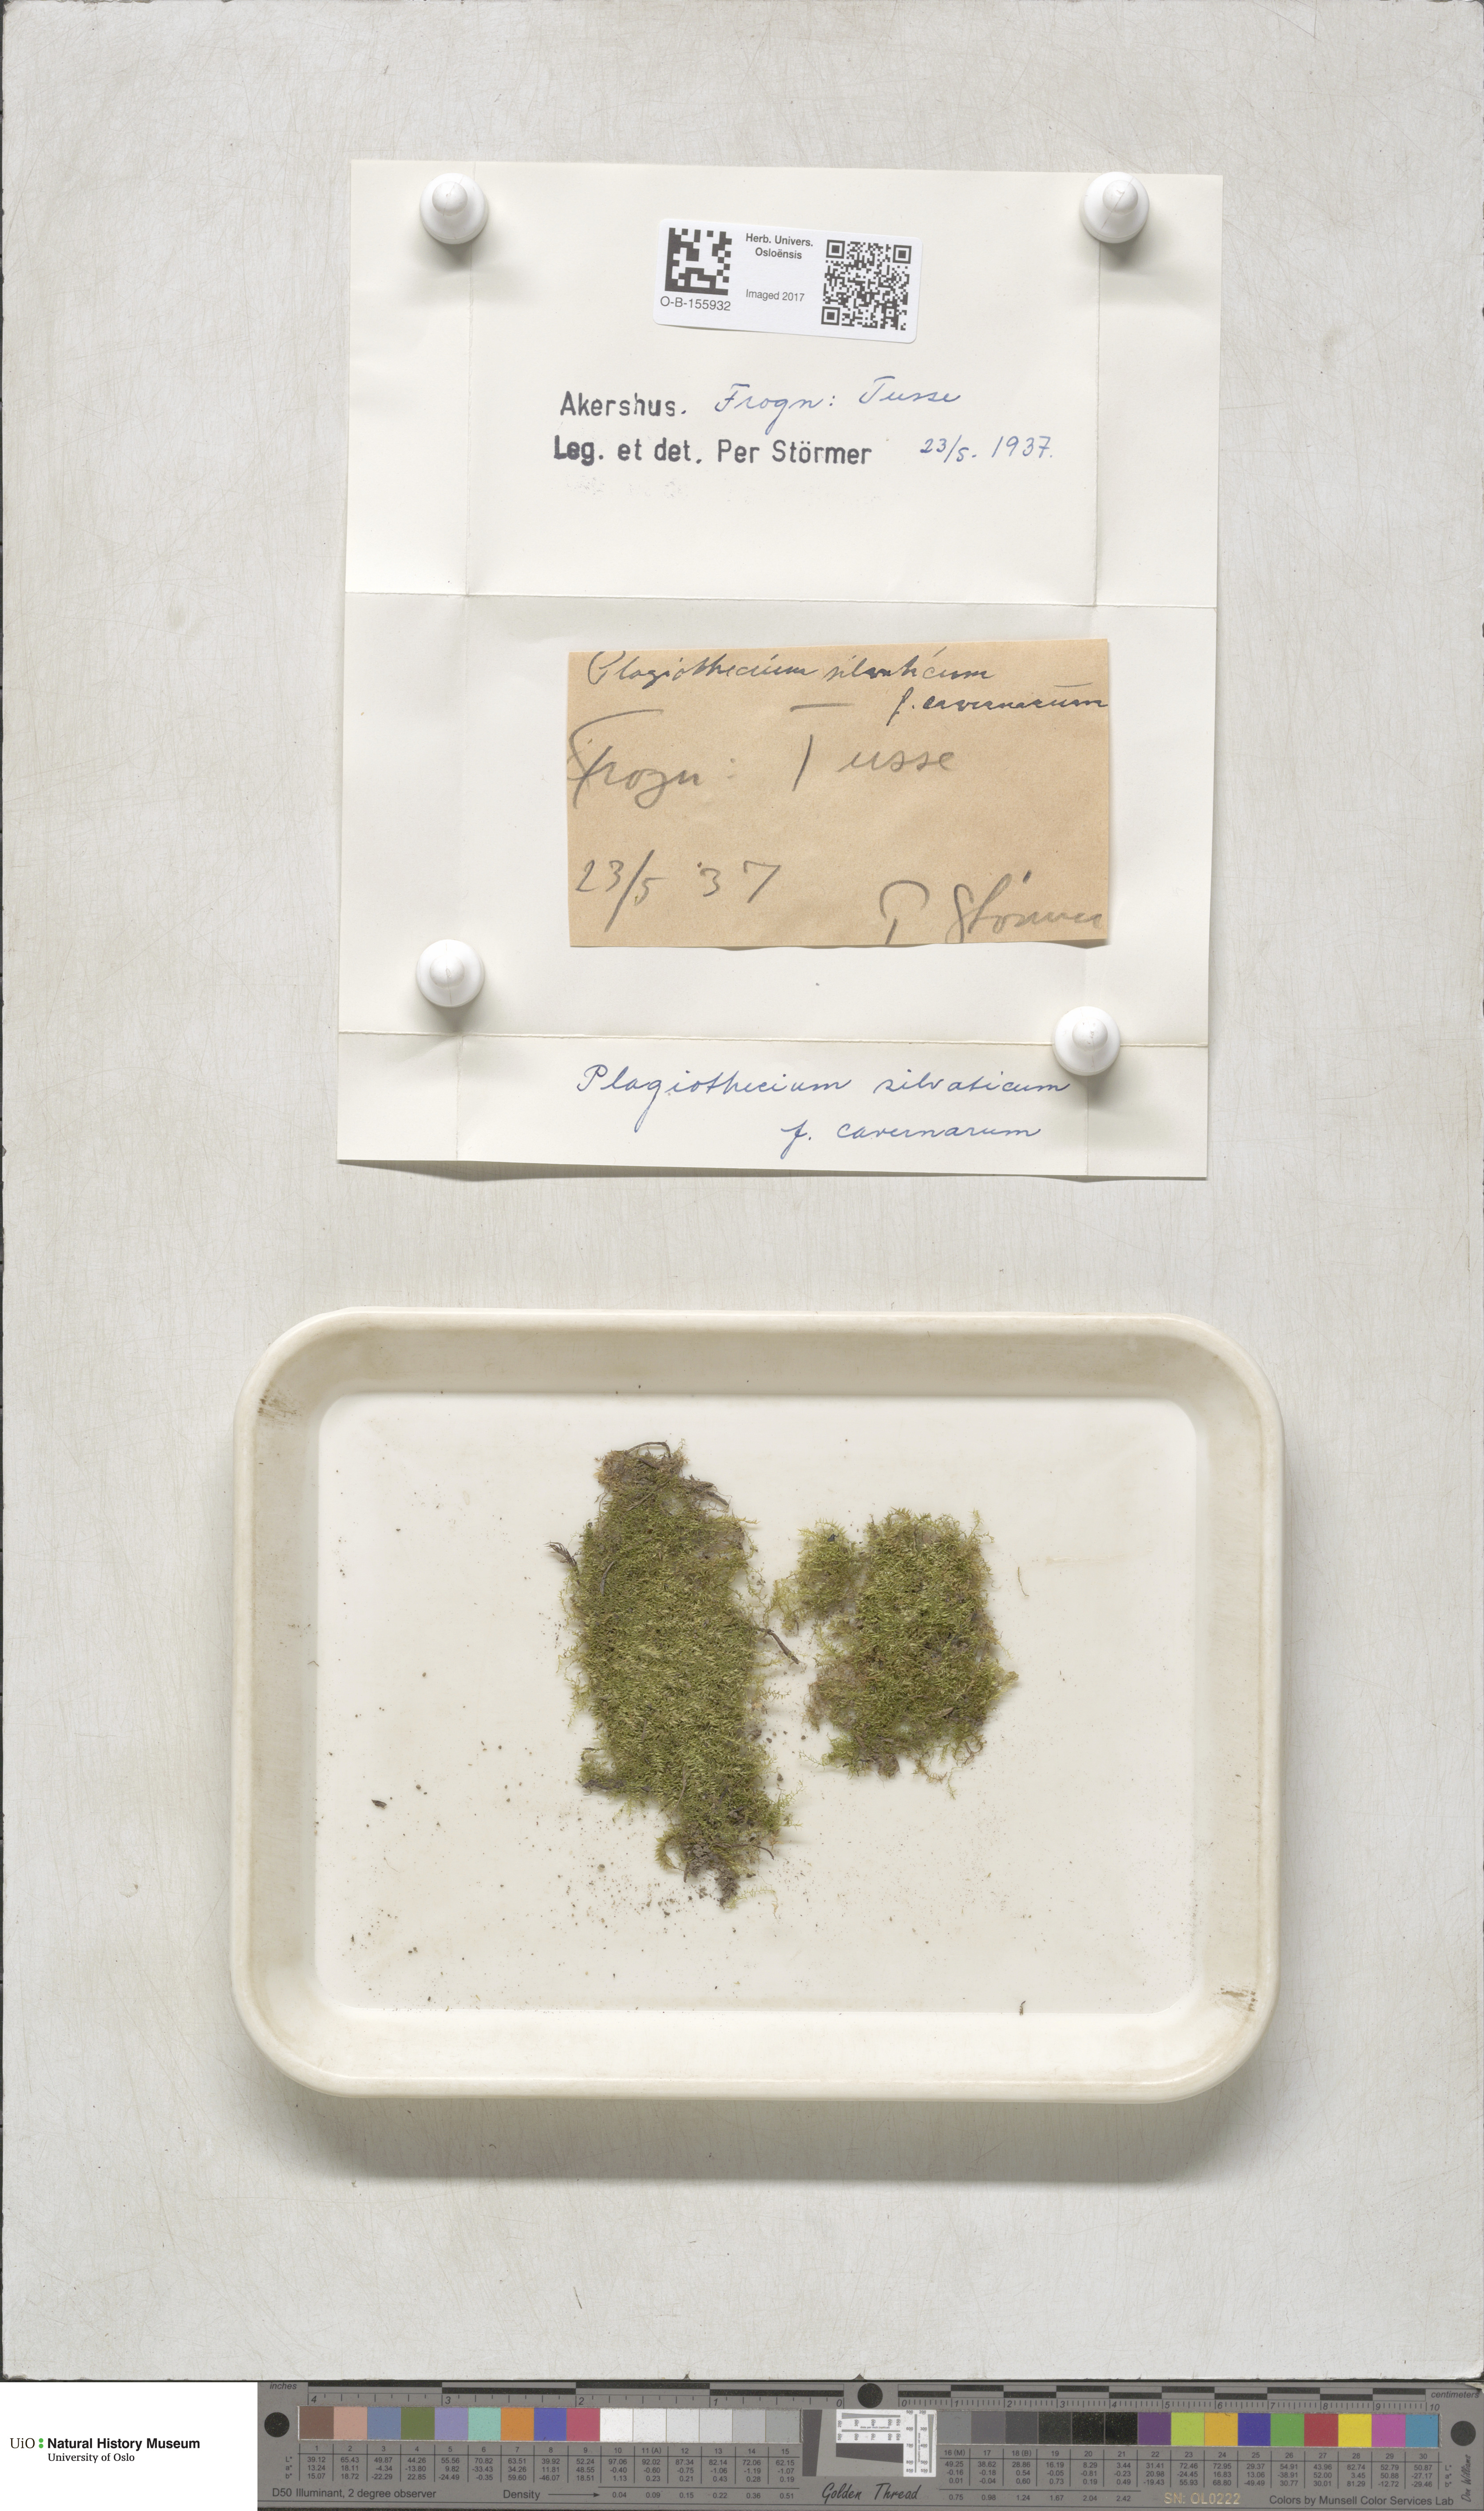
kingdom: Plantae
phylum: Bryophyta
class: Bryopsida
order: Hypnales
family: Plagiotheciaceae
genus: Plagiothecium
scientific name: Plagiothecium nemorale
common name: Woodsy silk-moss
